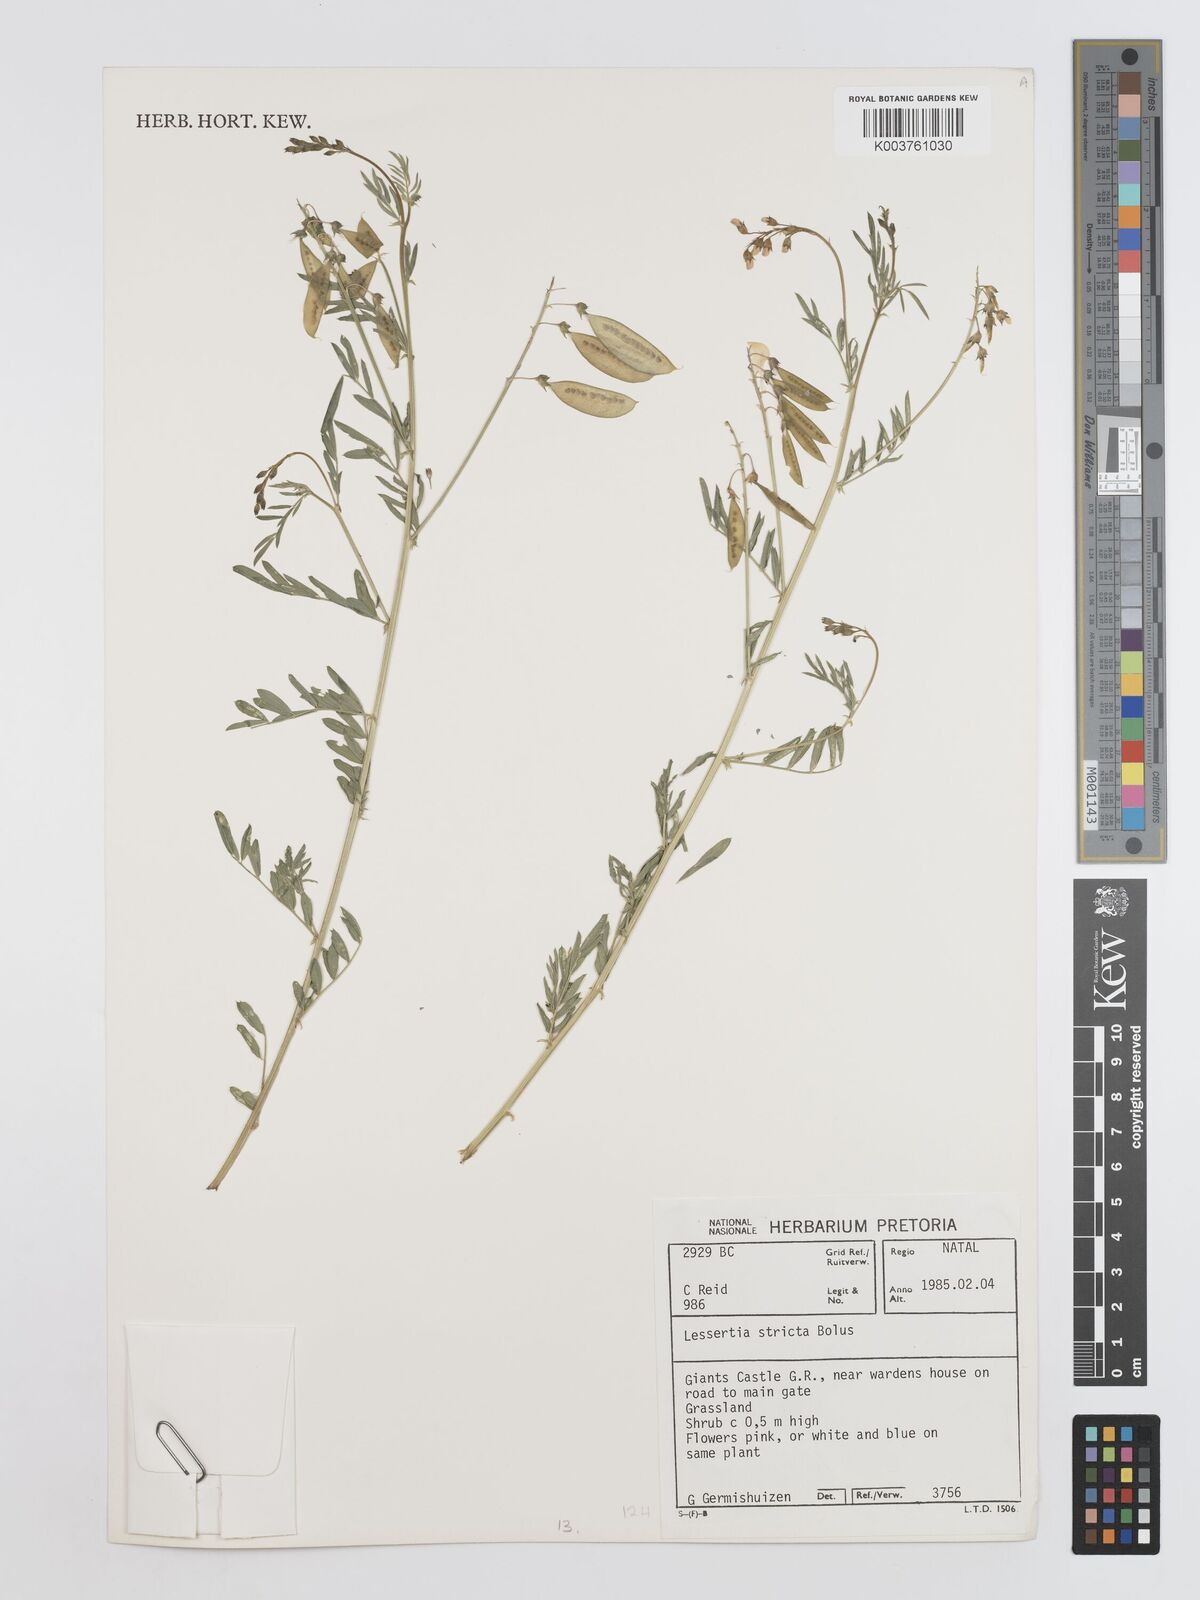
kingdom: Plantae
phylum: Tracheophyta
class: Magnoliopsida
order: Fabales
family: Fabaceae
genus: Lessertia
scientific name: Lessertia stricta
